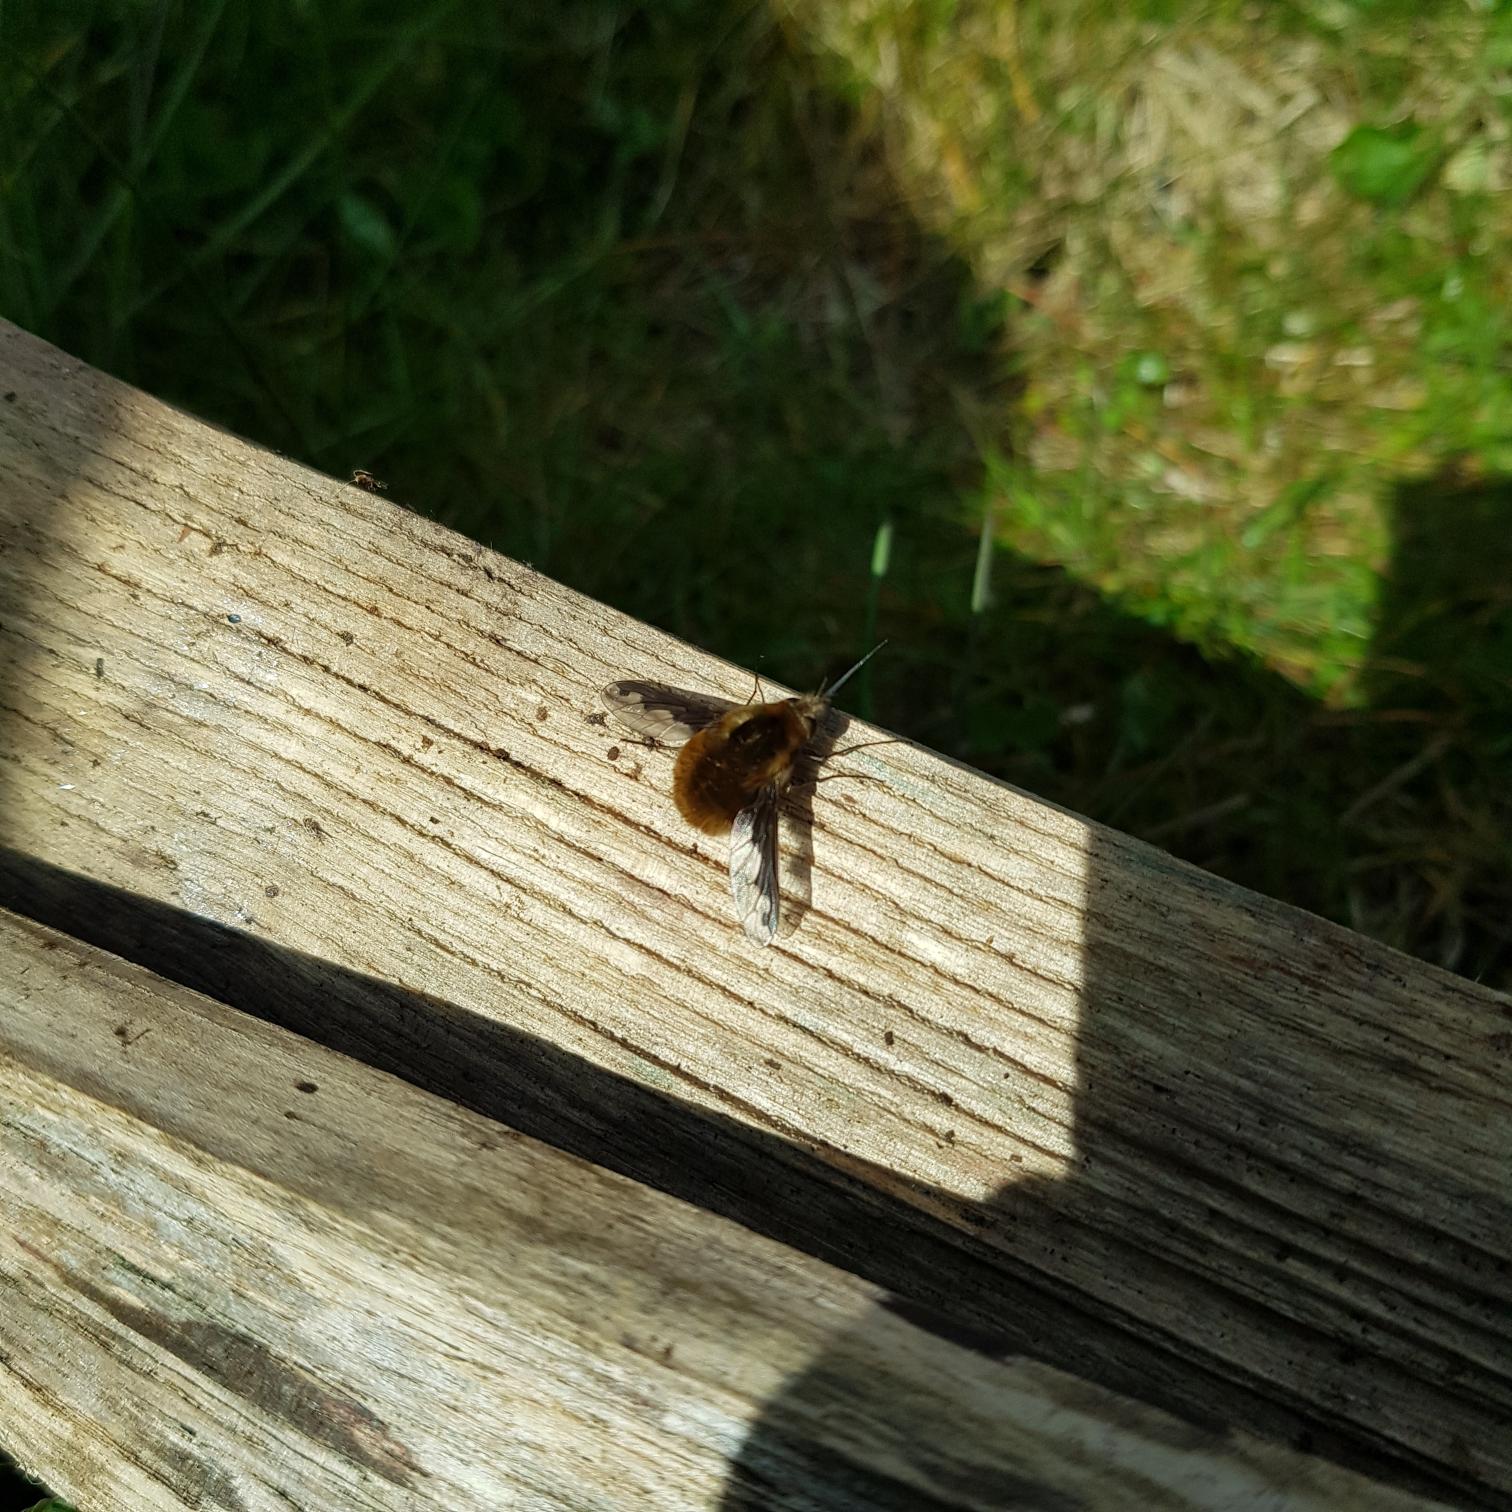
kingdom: Animalia
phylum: Arthropoda
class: Insecta
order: Diptera
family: Bombyliidae
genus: Bombylius
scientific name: Bombylius major
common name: Stor humleflue
